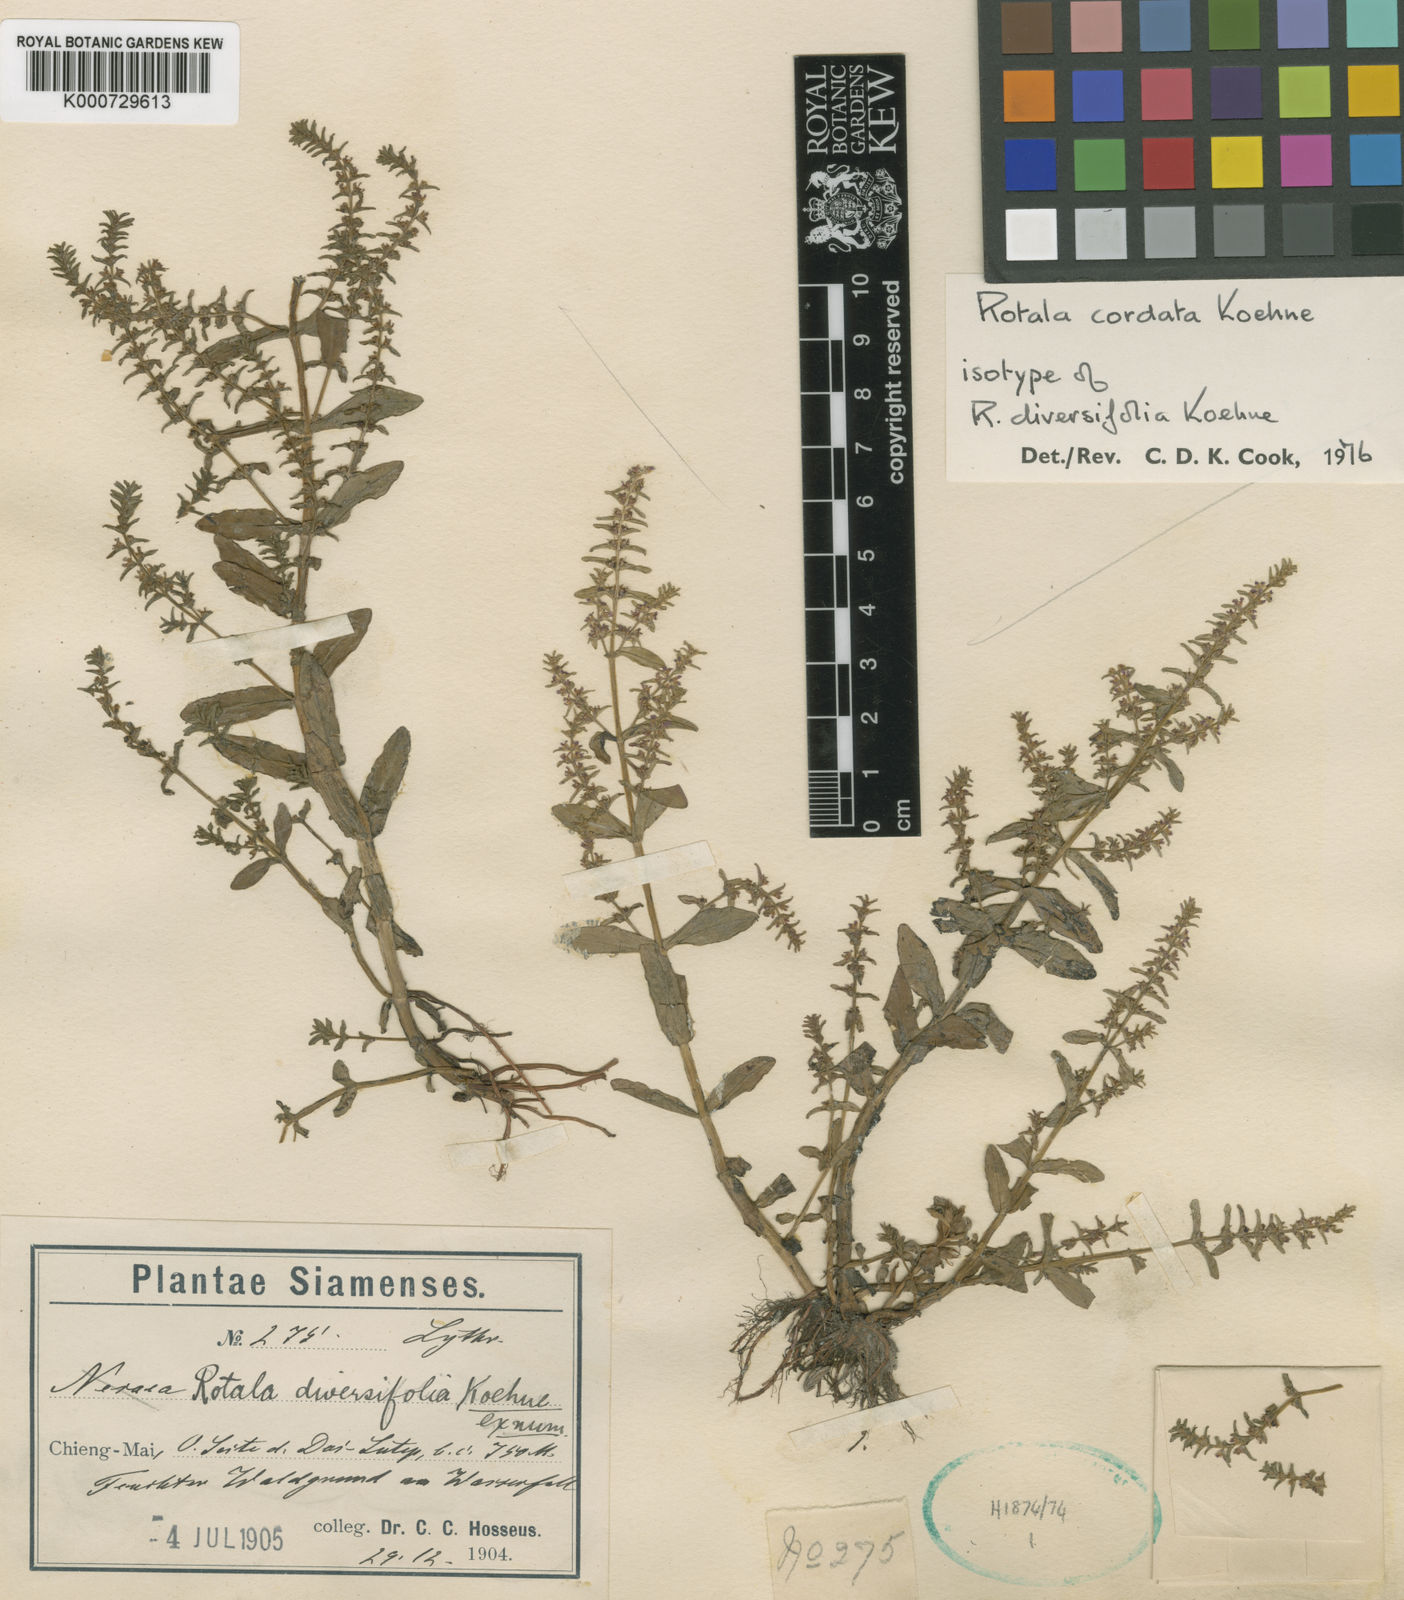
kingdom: Plantae
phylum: Tracheophyta
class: Magnoliopsida
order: Myrtales
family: Lythraceae
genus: Rotala
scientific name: Rotala cordata
